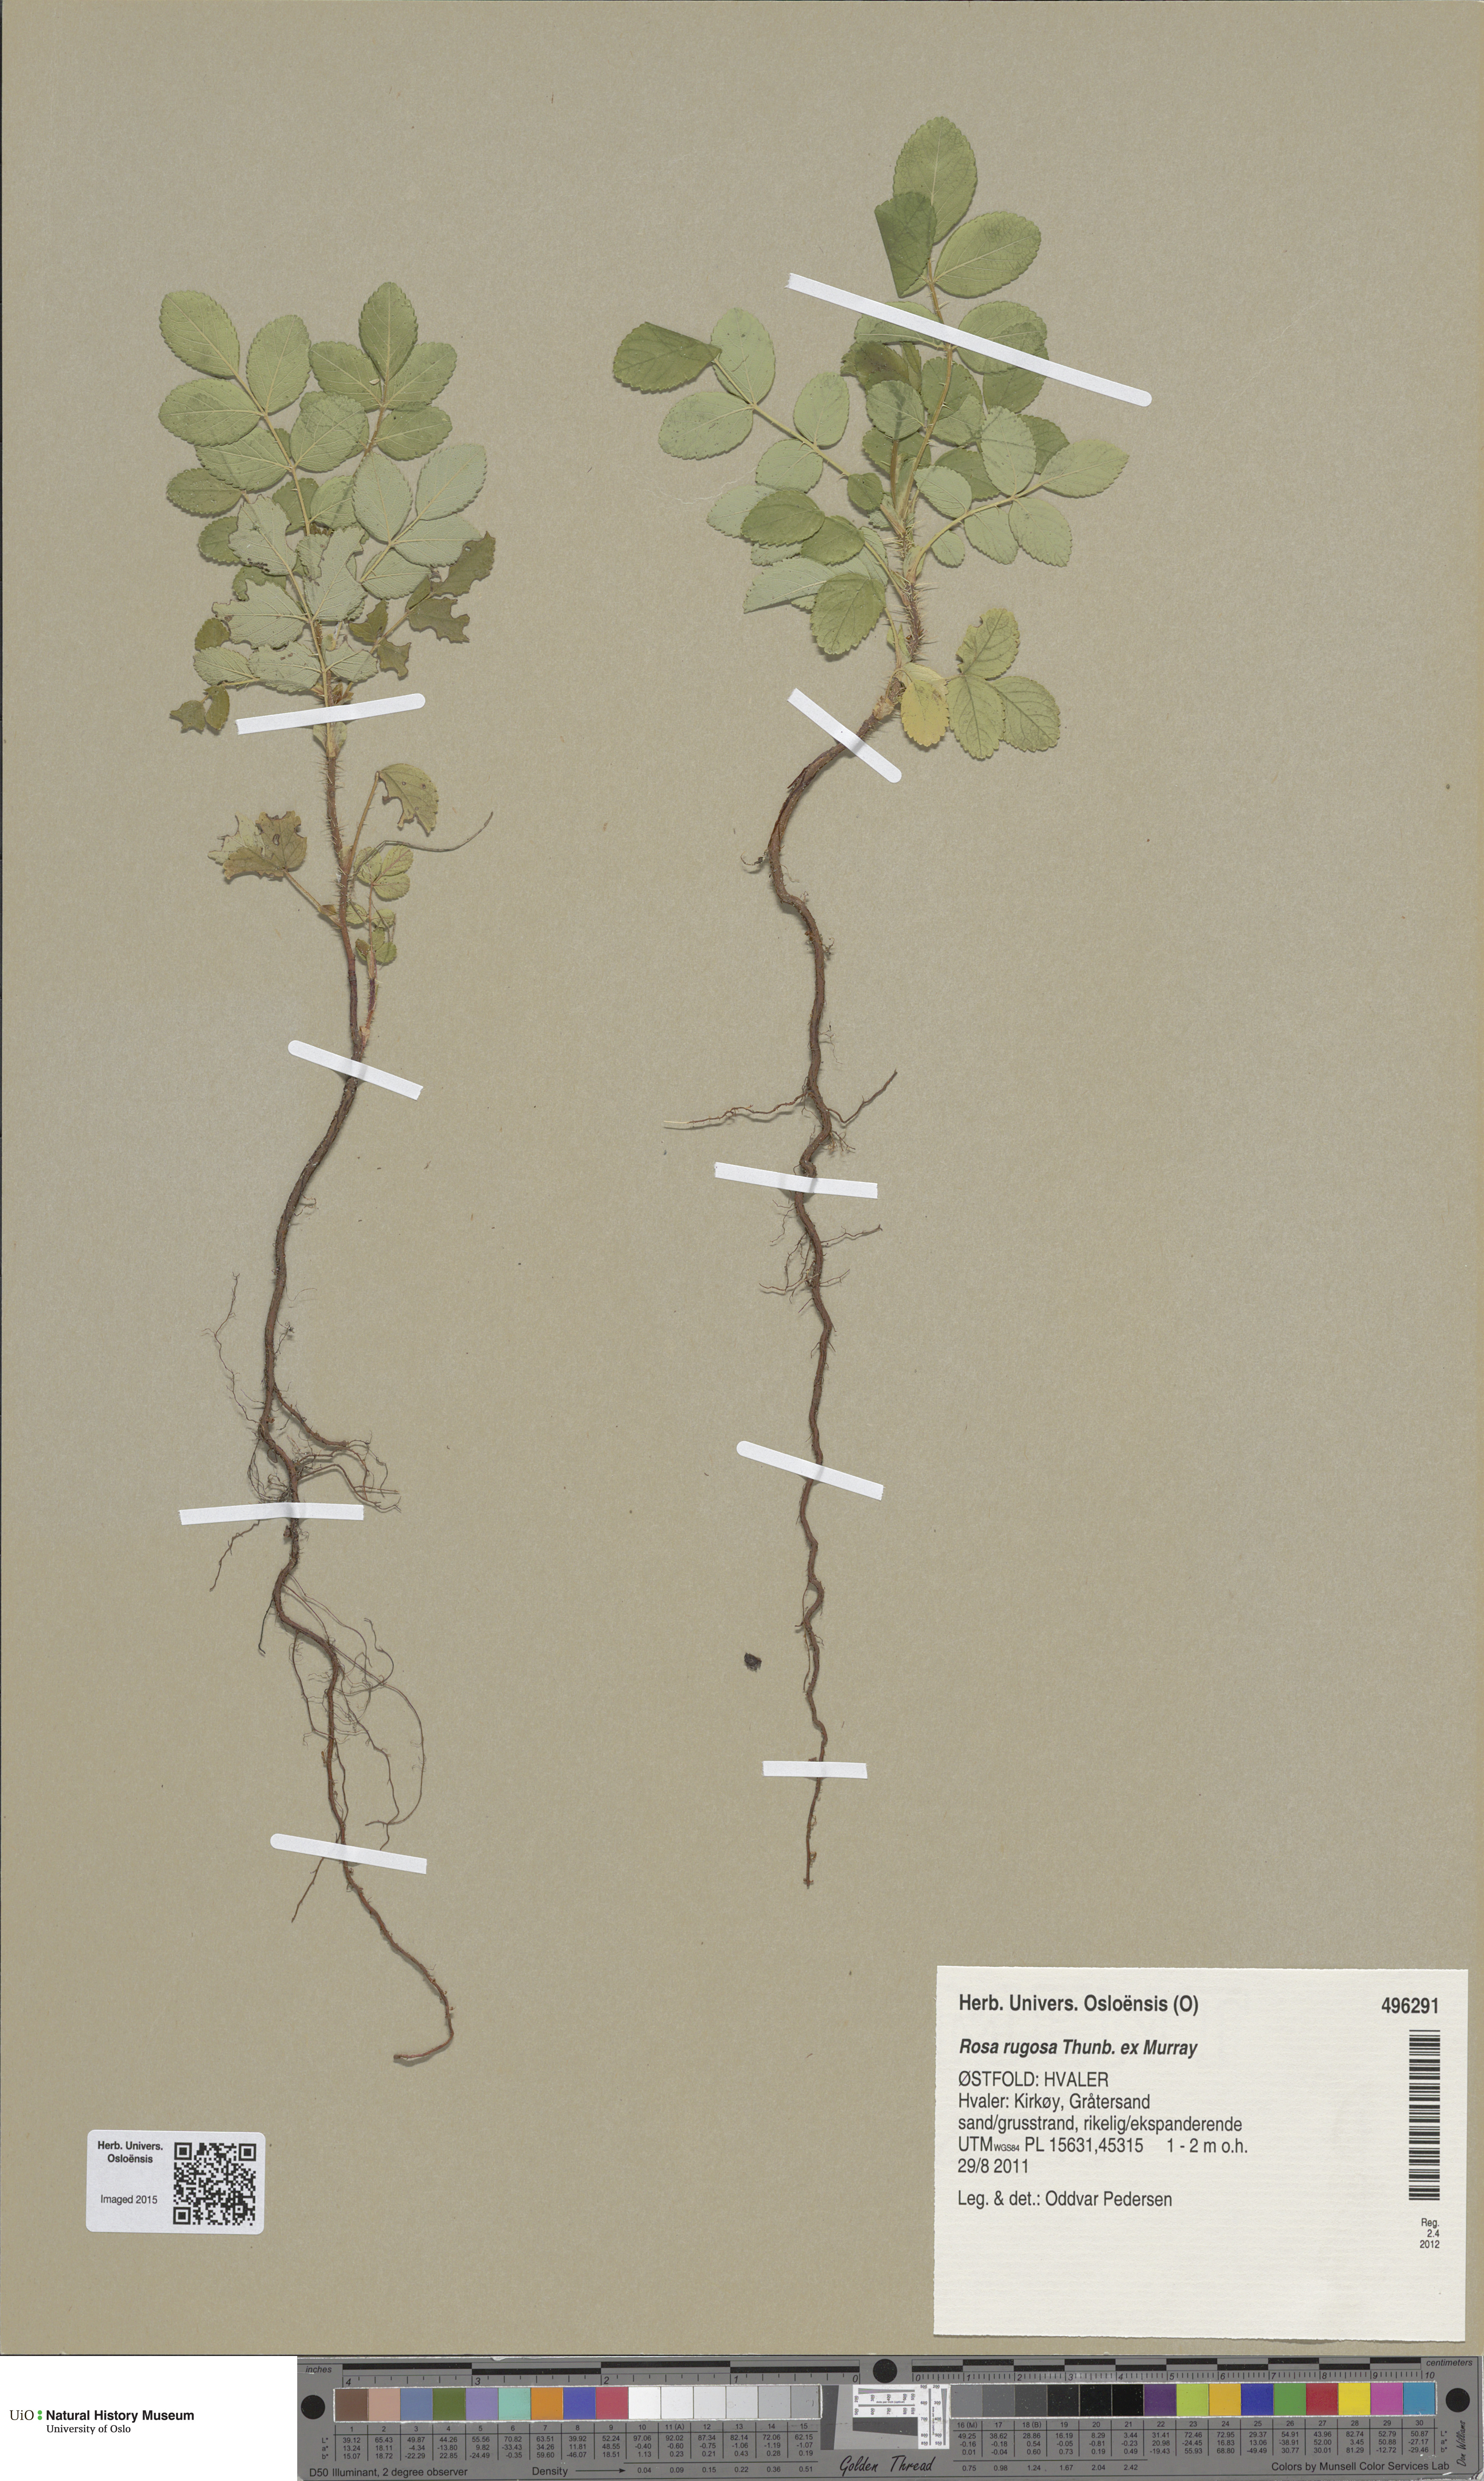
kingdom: Plantae
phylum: Tracheophyta
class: Magnoliopsida
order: Rosales
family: Rosaceae
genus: Rosa
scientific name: Rosa rugosa
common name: Japanese rose
